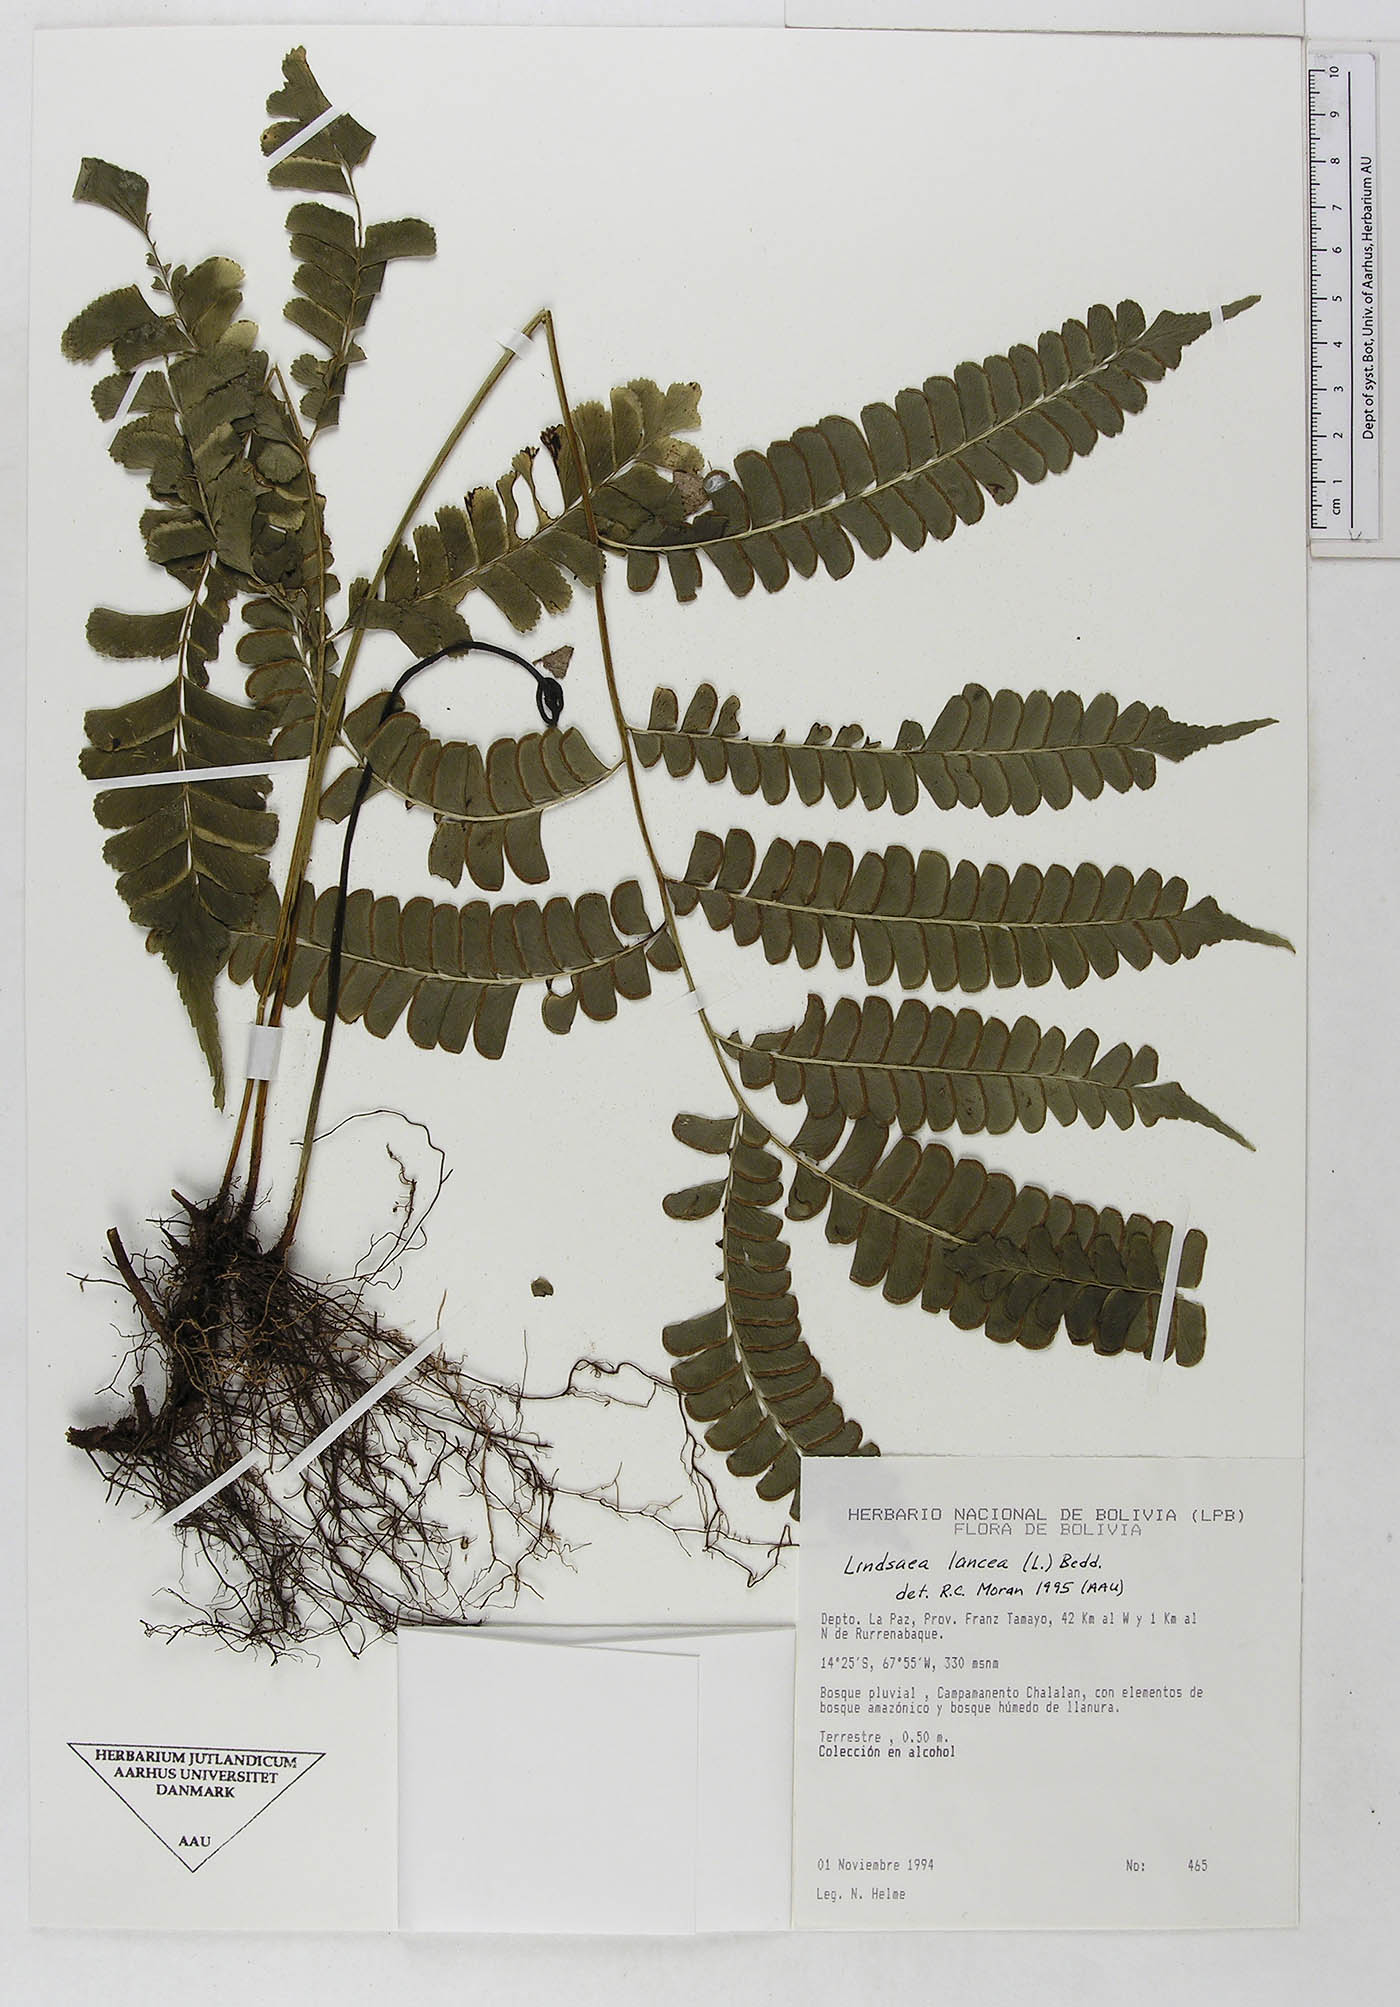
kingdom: Plantae
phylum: Tracheophyta
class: Polypodiopsida
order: Polypodiales
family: Dennstaedtiaceae
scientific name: Dennstaedtiaceae
